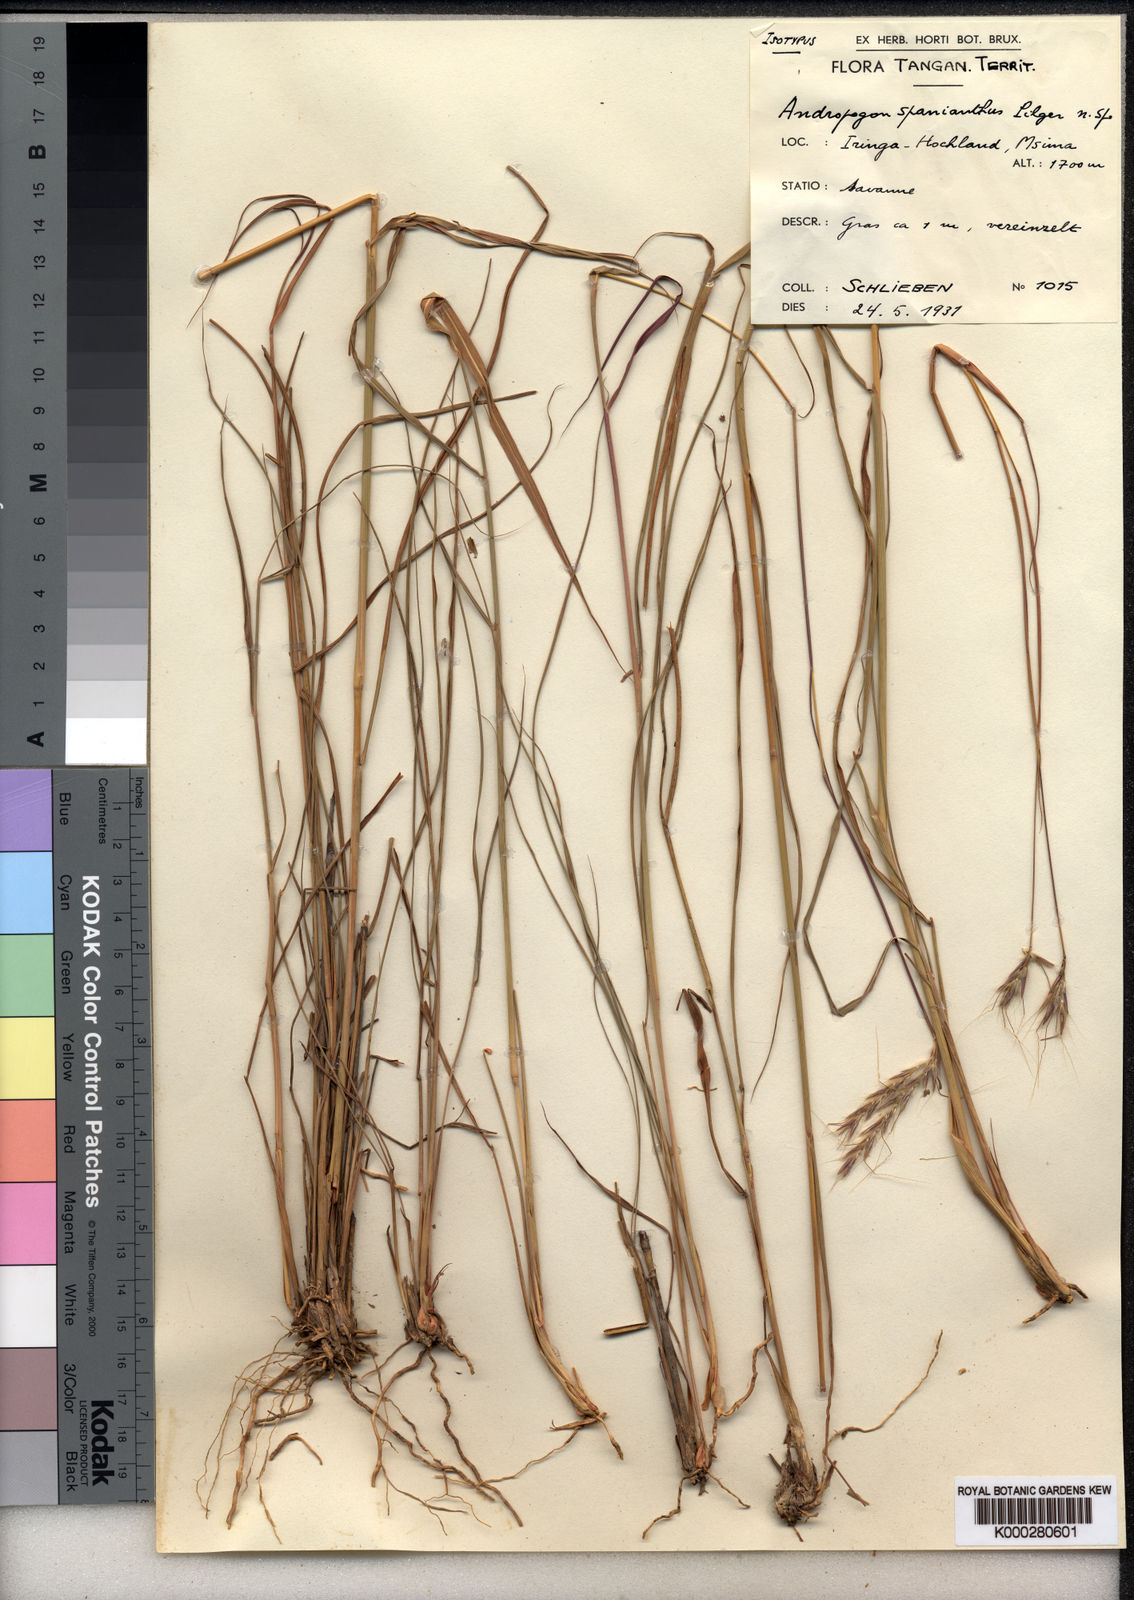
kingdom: Plantae
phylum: Tracheophyta
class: Liliopsida
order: Poales
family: Poaceae
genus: Andropogon
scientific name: Andropogon chinensis
